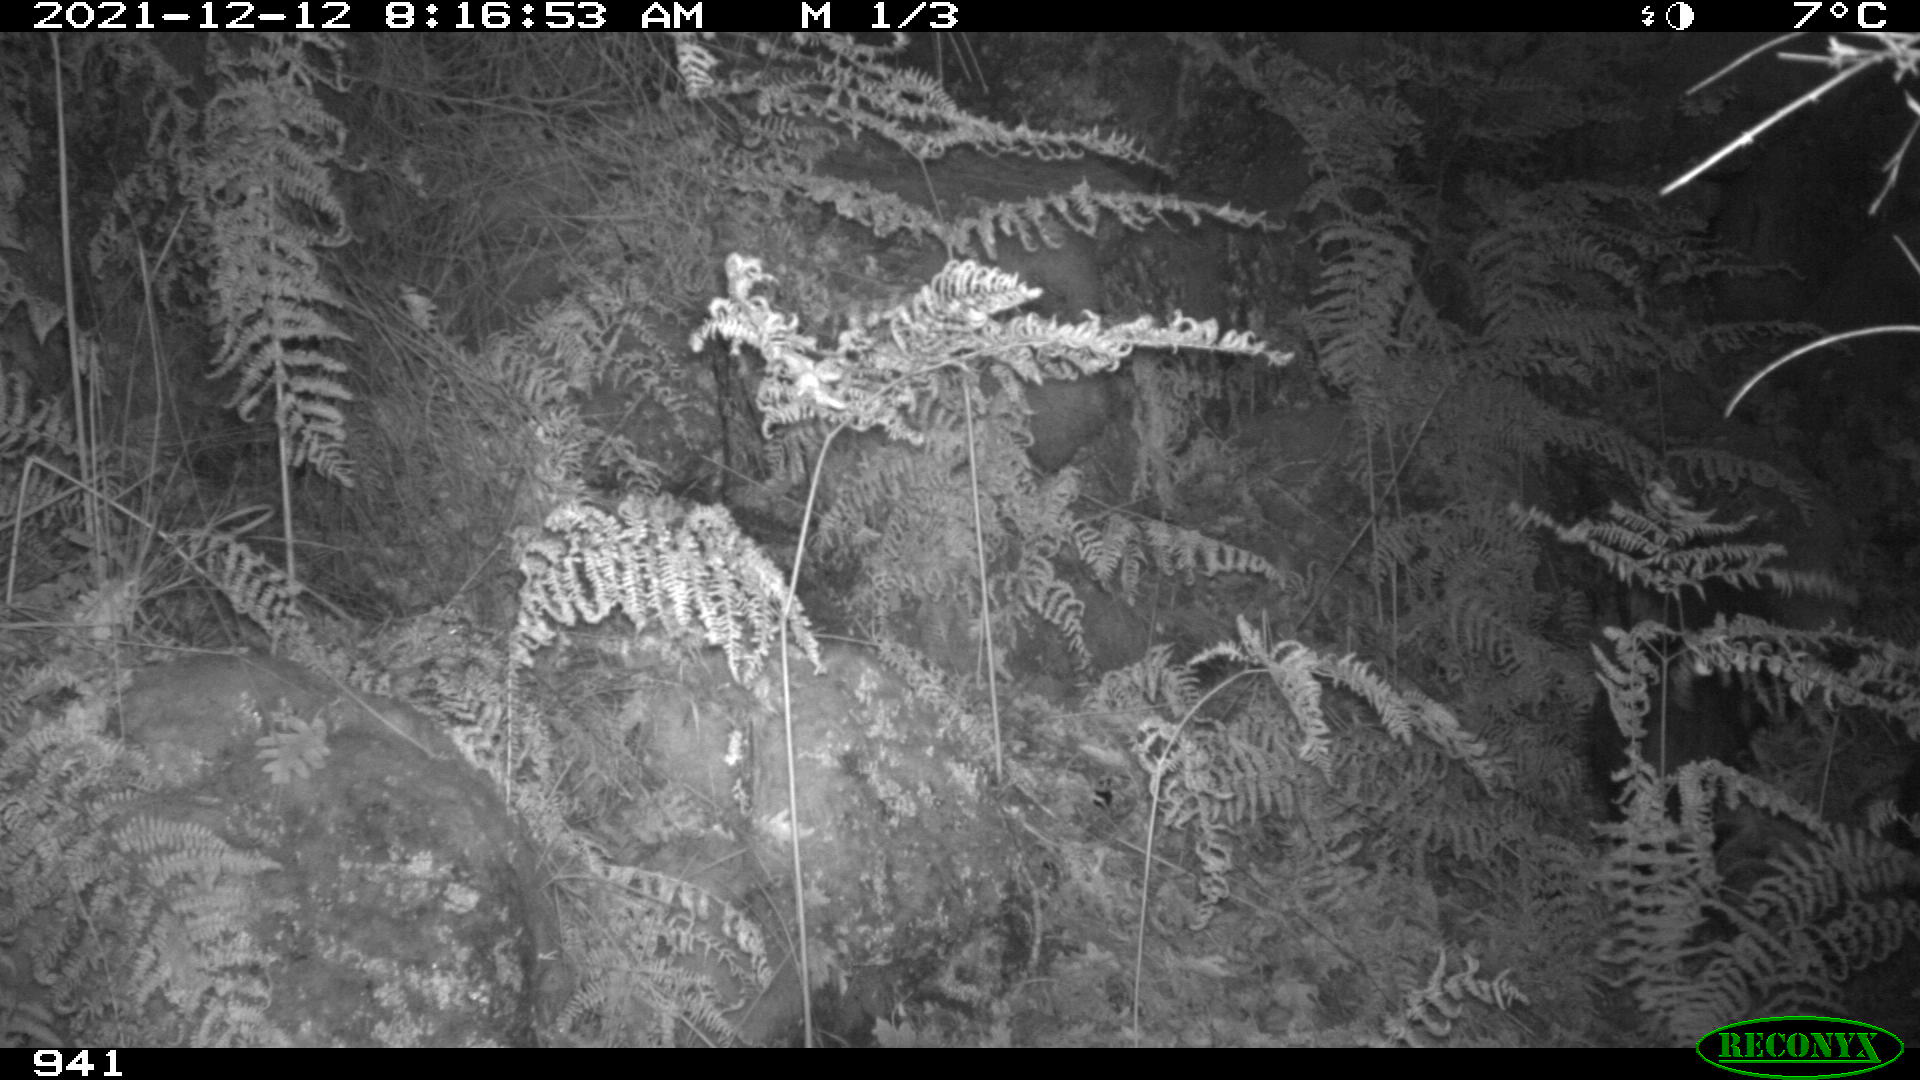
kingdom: Animalia
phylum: Chordata
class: Mammalia
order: Artiodactyla
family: Suidae
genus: Sus
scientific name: Sus scrofa
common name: Wild boar
